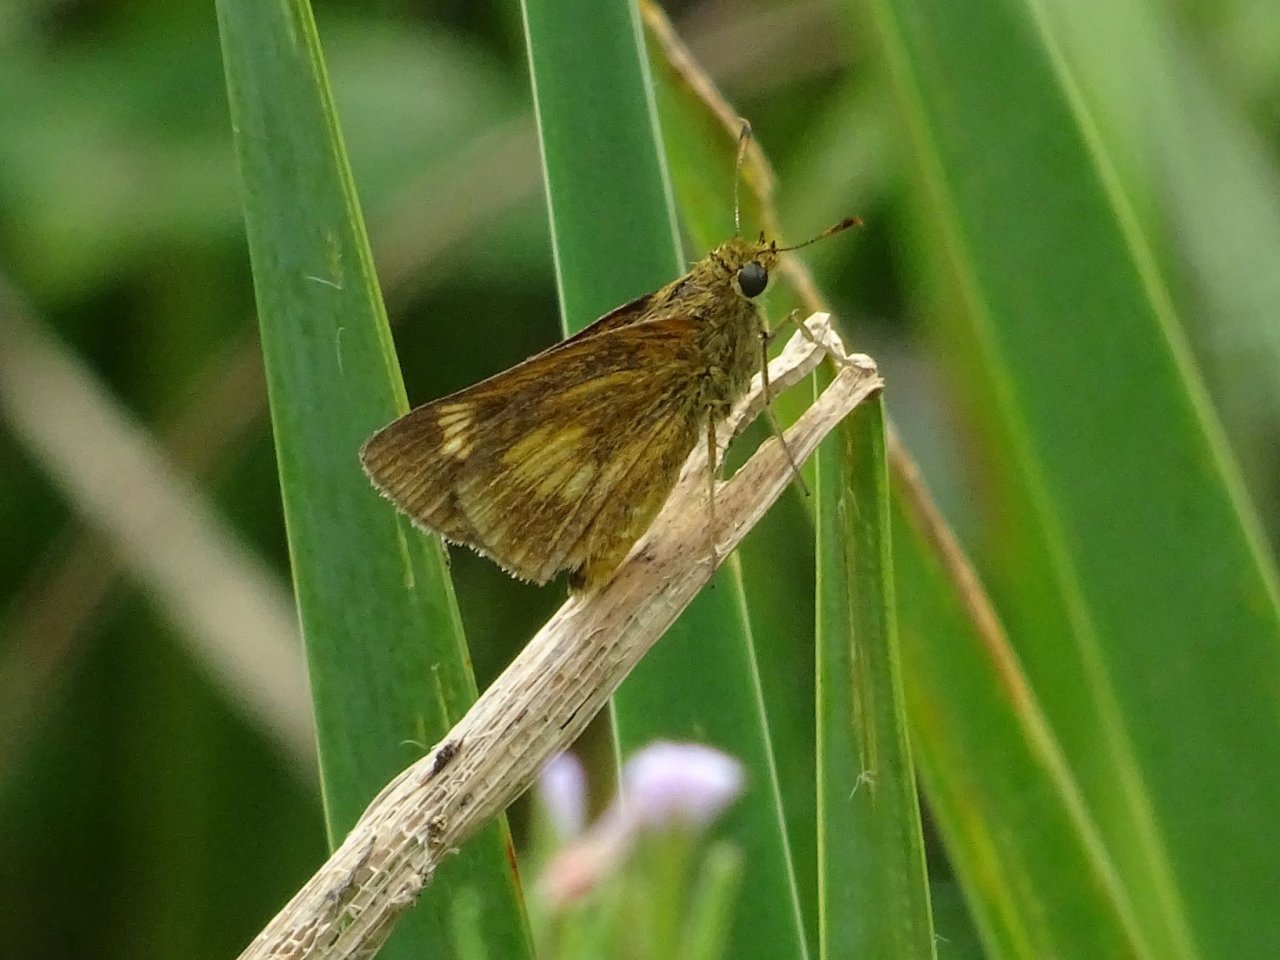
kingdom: Animalia
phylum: Arthropoda
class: Insecta
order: Lepidoptera
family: Hesperiidae
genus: Euphyes
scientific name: Euphyes conspicua
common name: Black Dash
